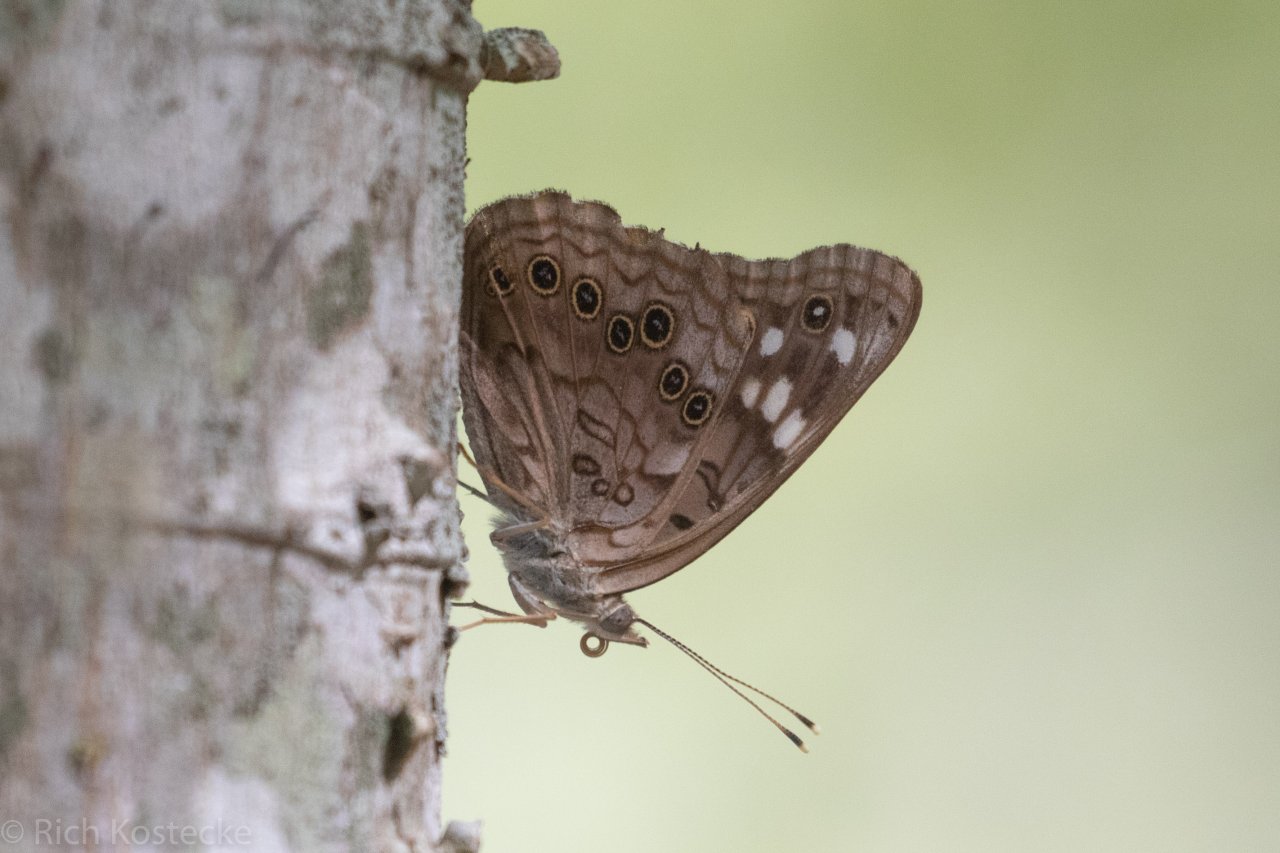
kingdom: Animalia
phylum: Arthropoda
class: Insecta
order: Lepidoptera
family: Nymphalidae
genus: Asterocampa
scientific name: Asterocampa celtis
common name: Hackberry Emperor
